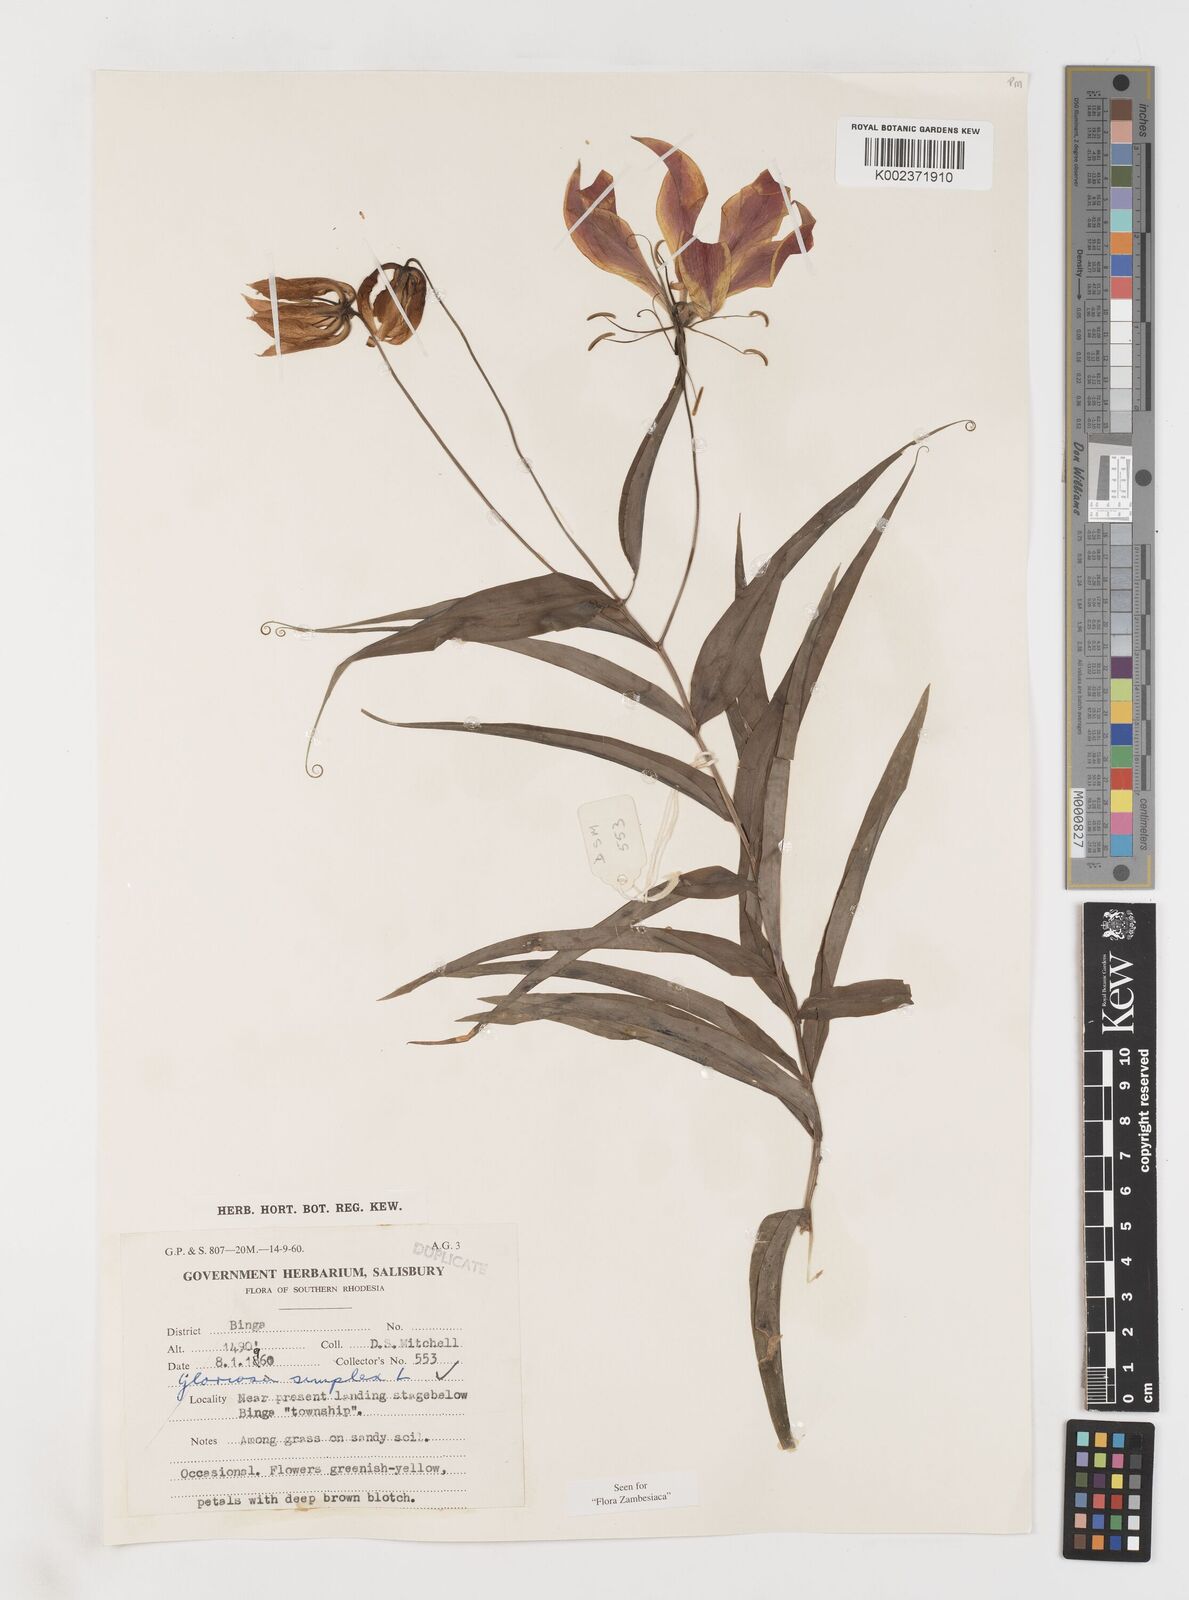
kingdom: Plantae
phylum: Tracheophyta
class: Liliopsida
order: Liliales
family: Colchicaceae
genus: Gloriosa
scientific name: Gloriosa simplex
